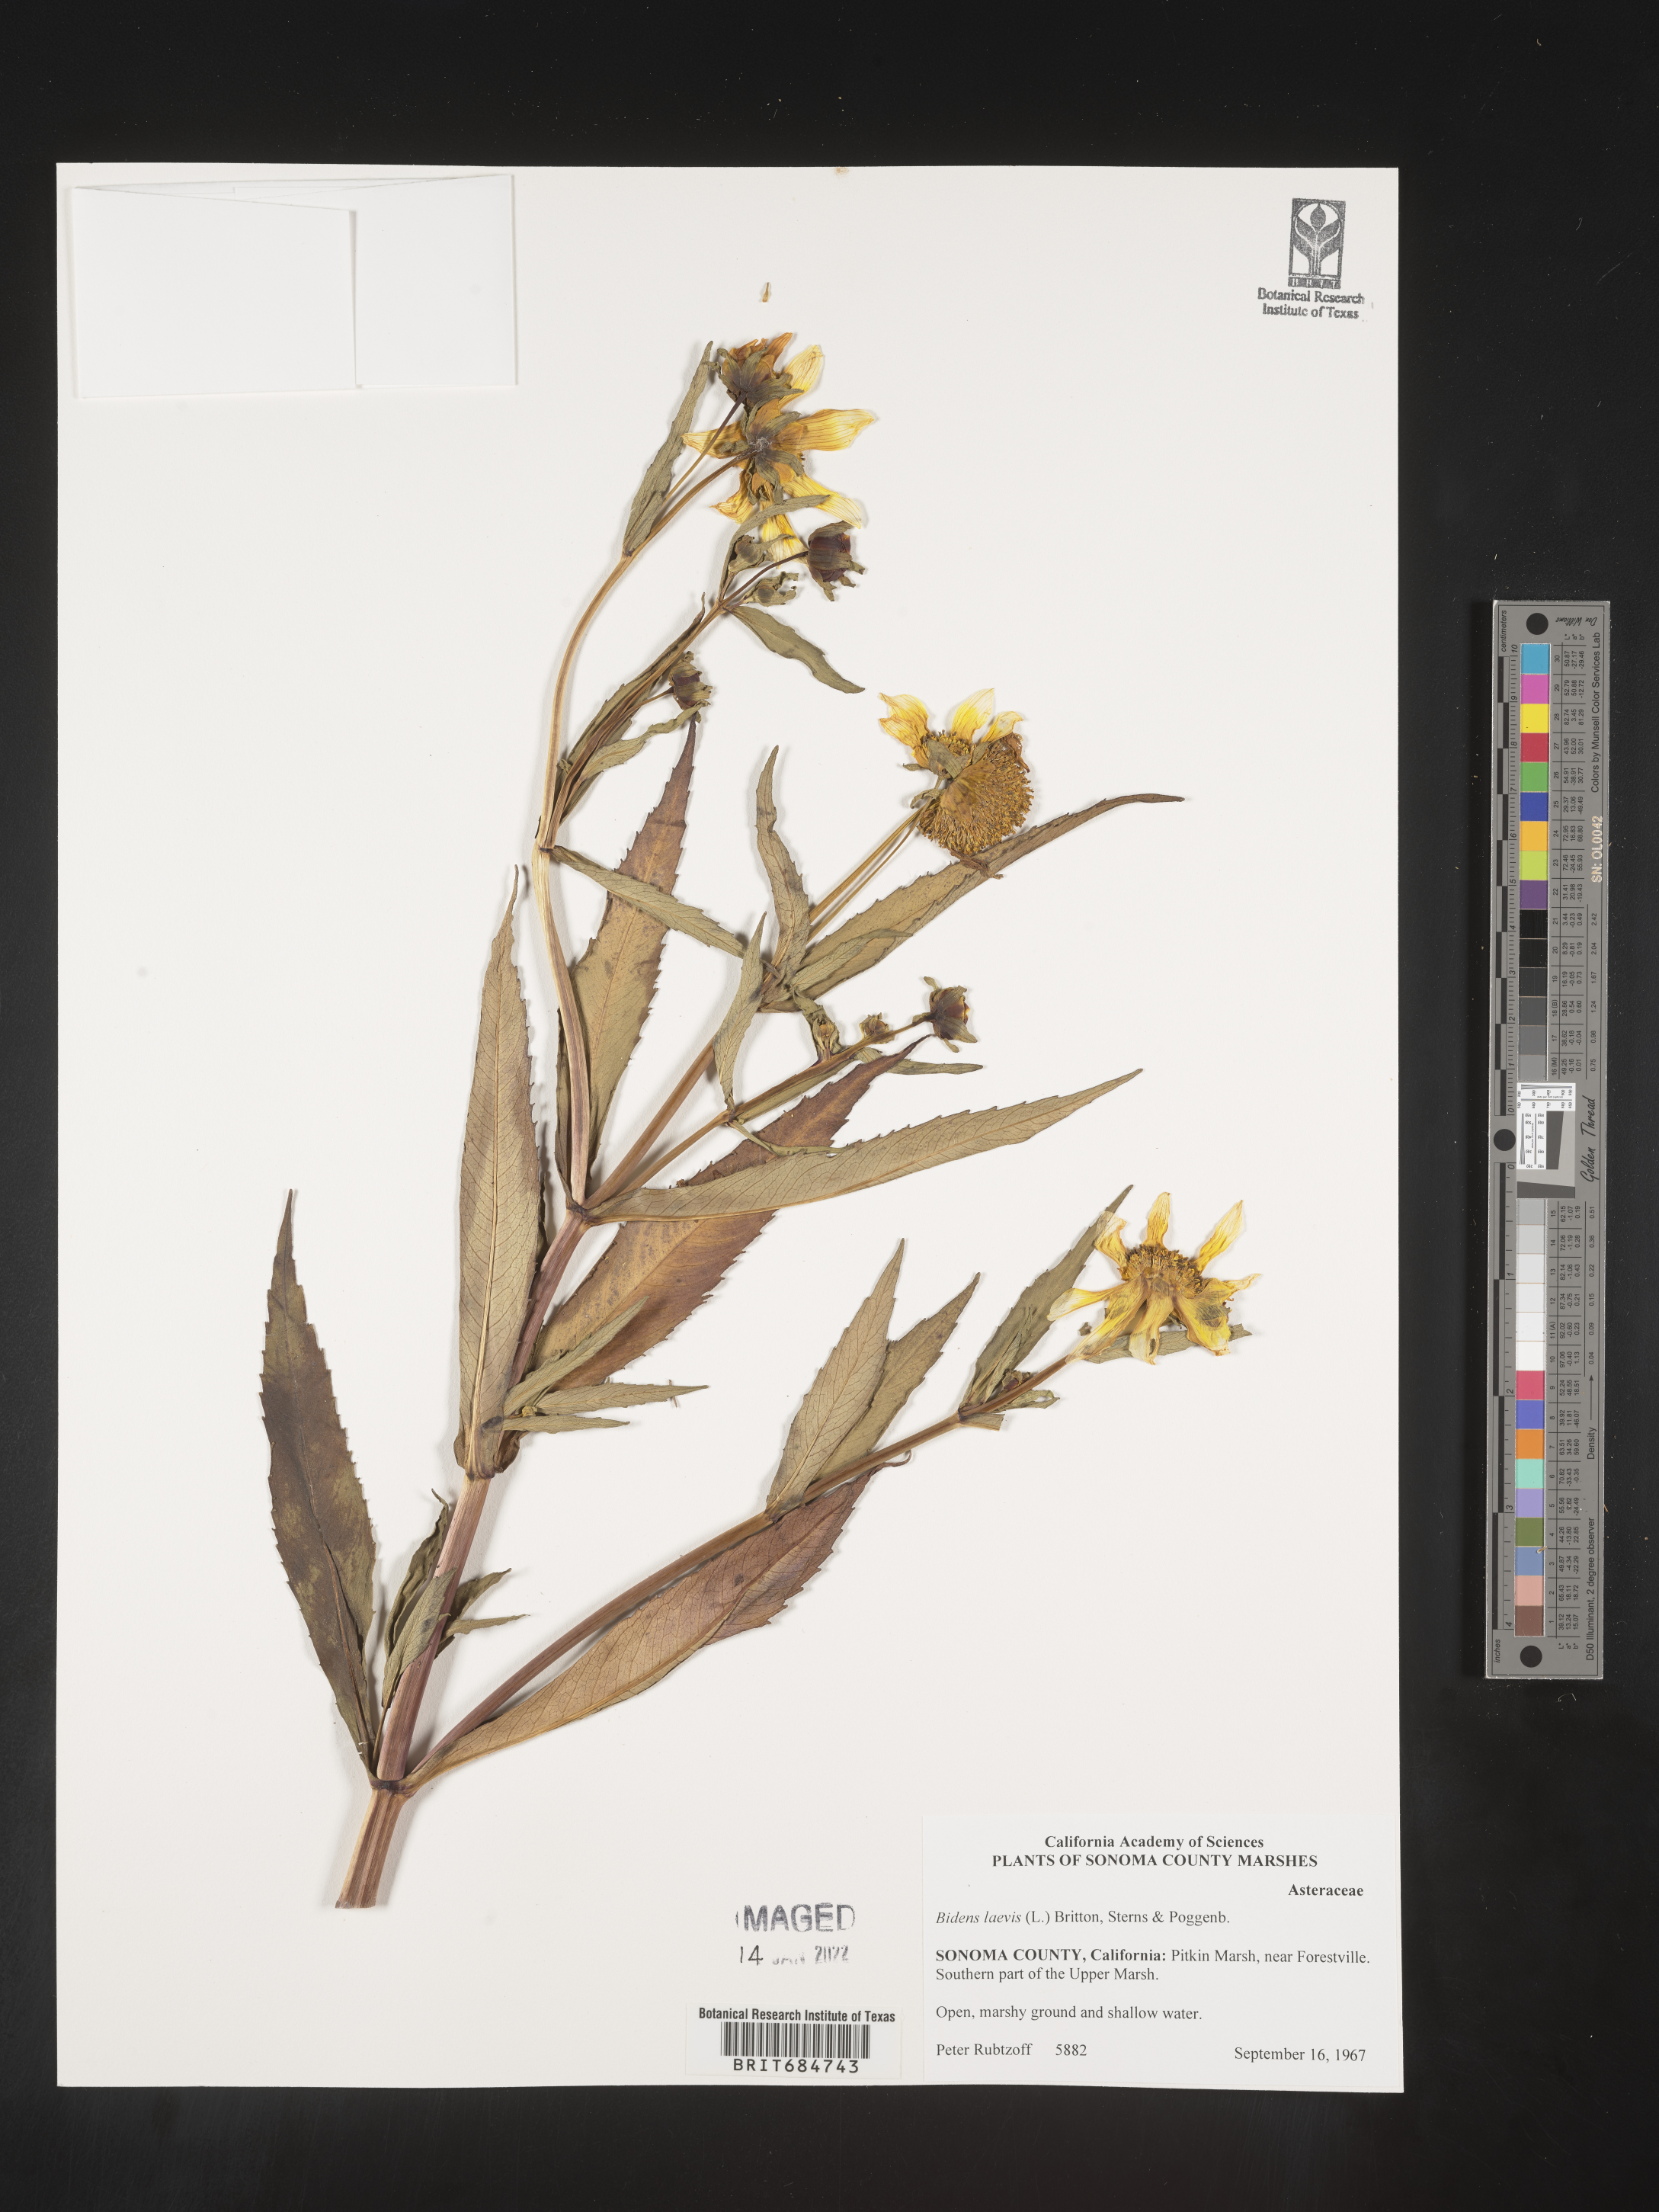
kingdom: Plantae
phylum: Tracheophyta
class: Magnoliopsida
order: Asterales
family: Asteraceae
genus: Bidens
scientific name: Bidens laevis
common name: Larger bur-marigold
